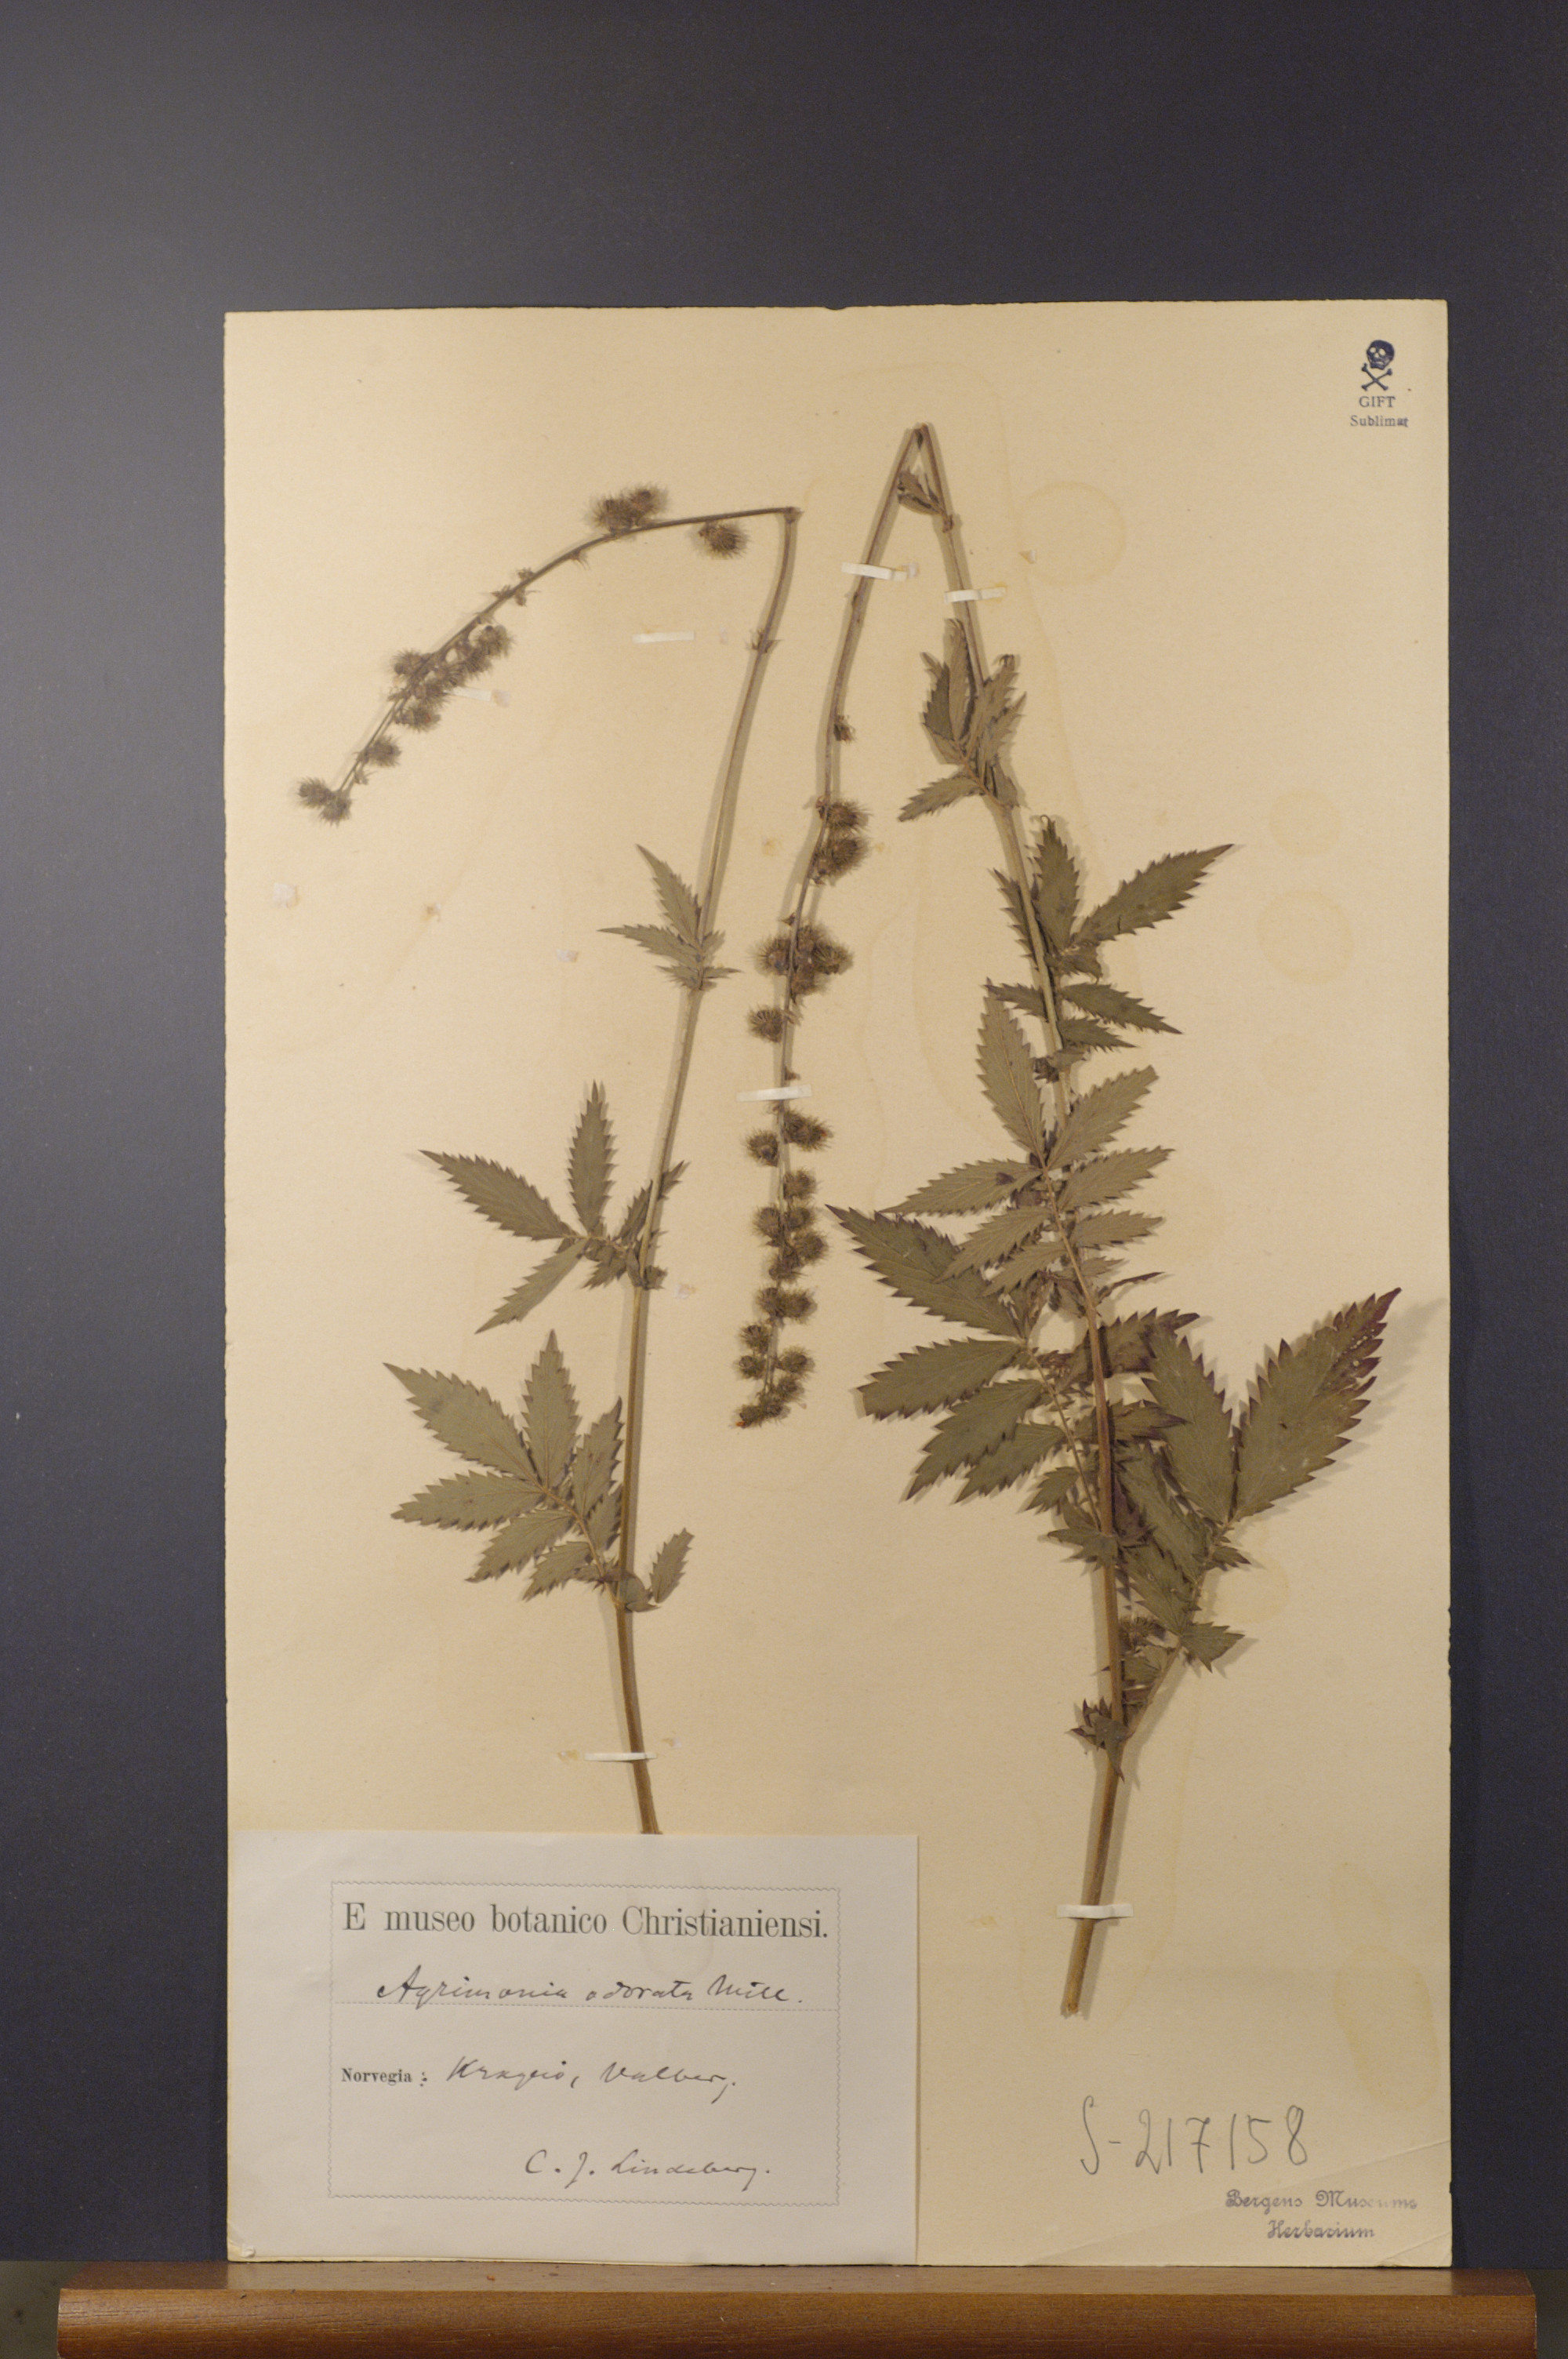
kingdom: Plantae
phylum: Tracheophyta
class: Magnoliopsida
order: Rosales
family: Rosaceae
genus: Agrimonia
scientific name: Agrimonia procera
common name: Fragrant agrimony
